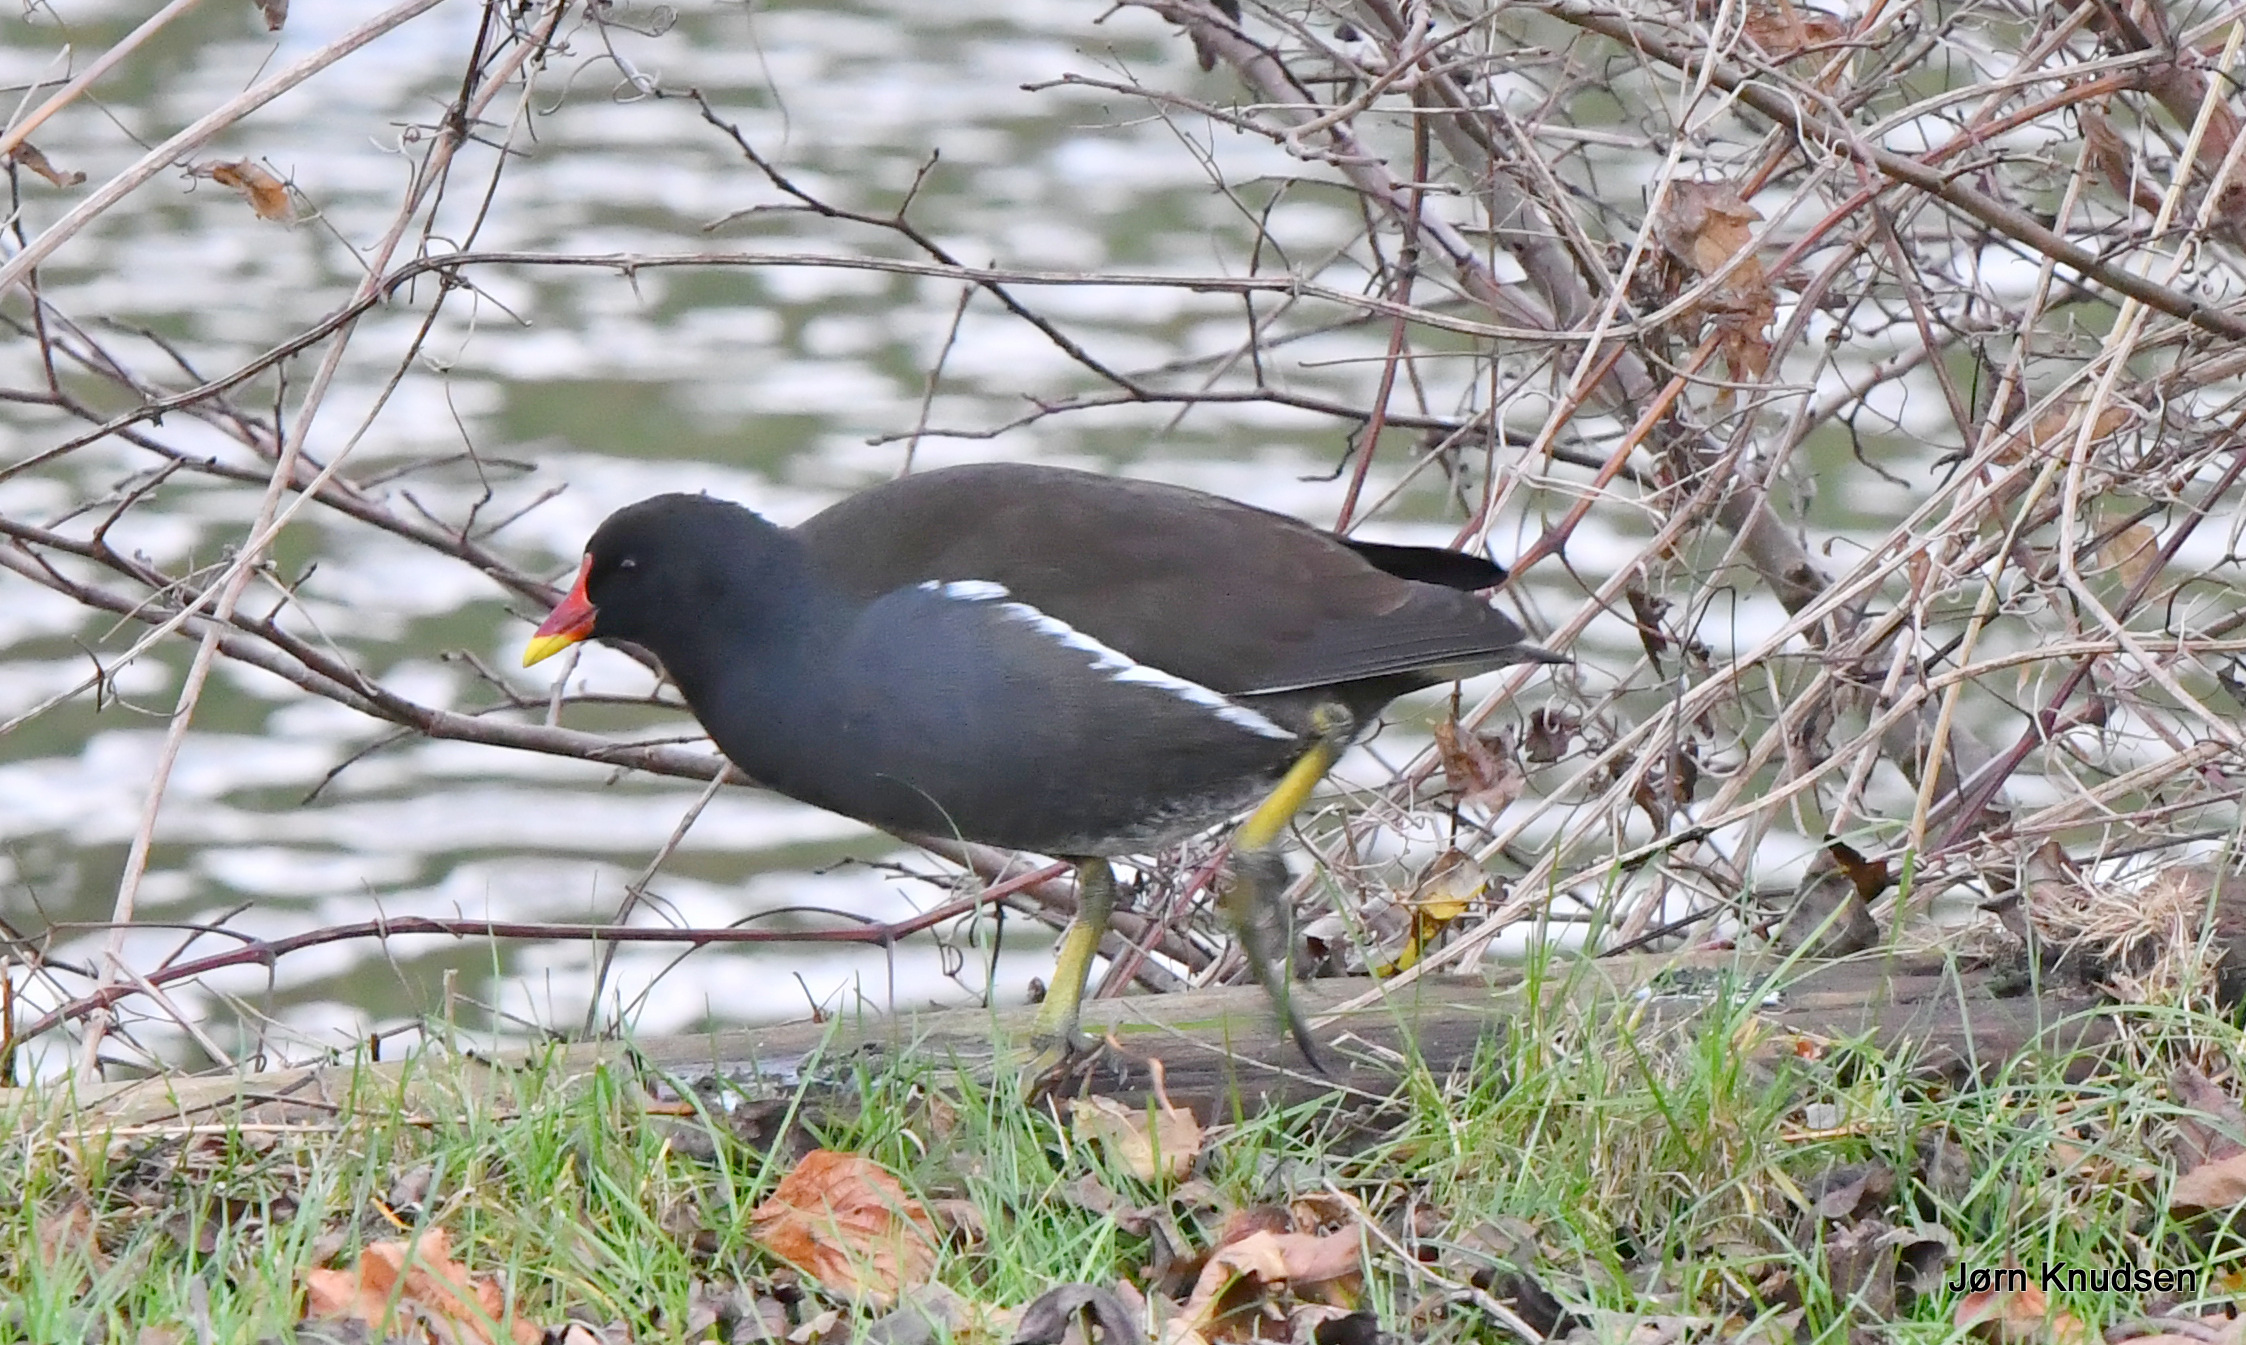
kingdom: Animalia
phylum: Chordata
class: Aves
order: Gruiformes
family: Rallidae
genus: Gallinula
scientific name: Gallinula chloropus
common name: Grønbenet rørhøne
